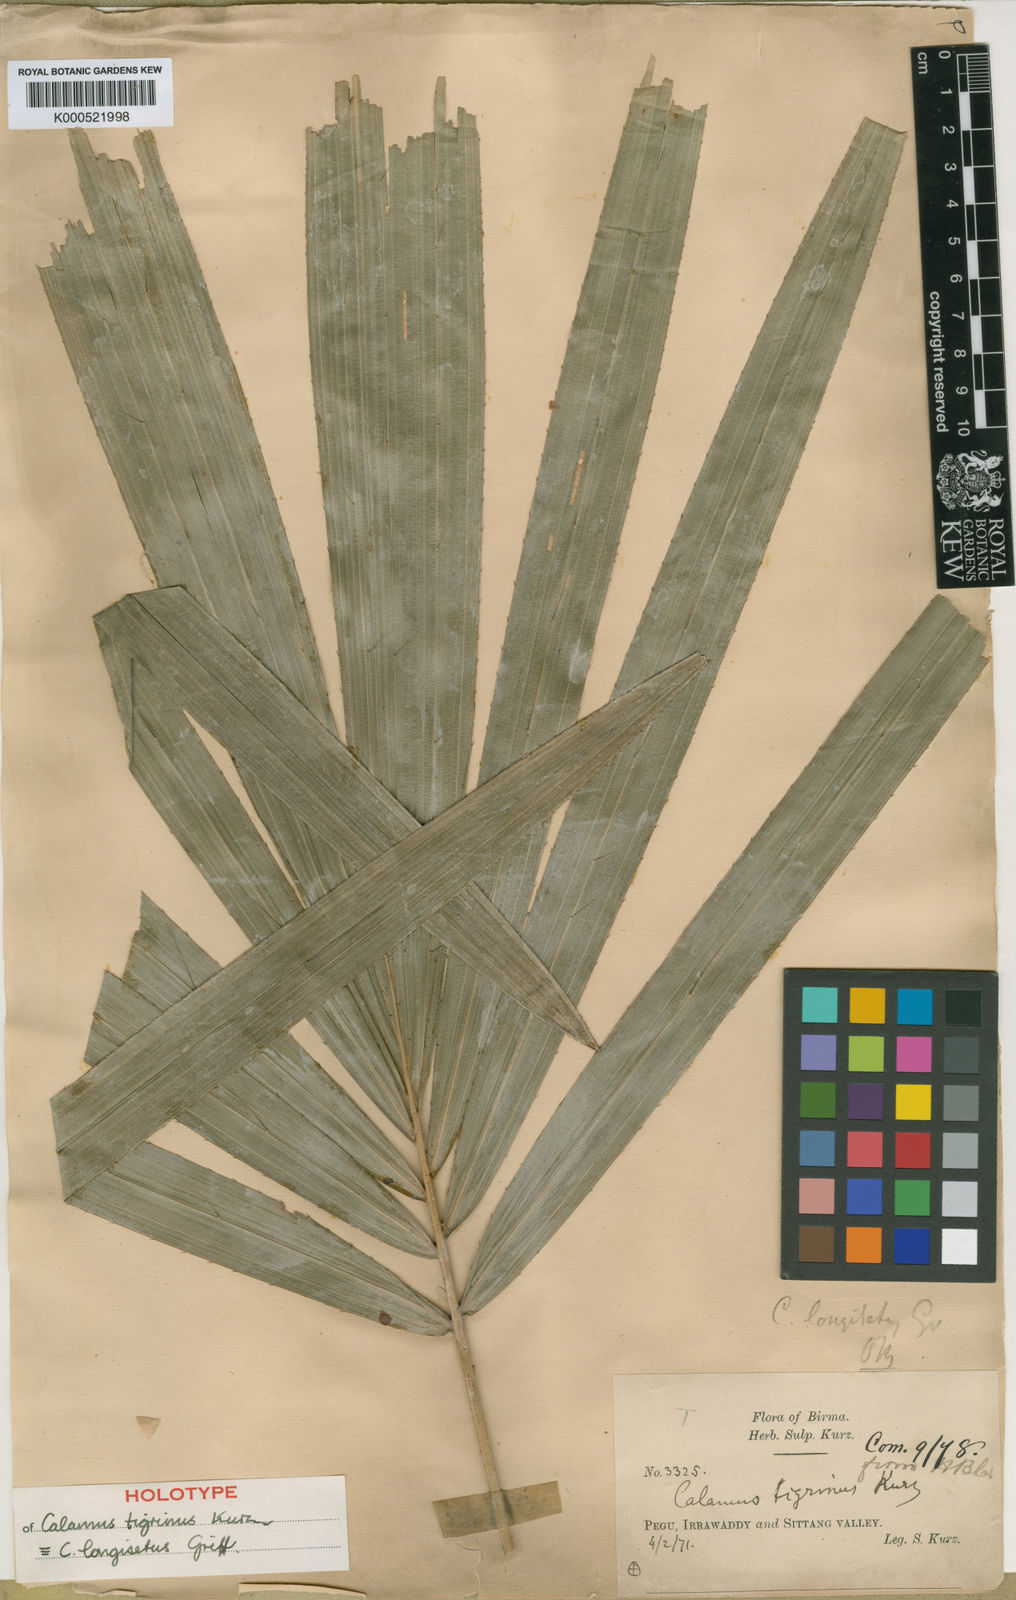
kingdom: Plantae
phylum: Tracheophyta
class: Liliopsida
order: Arecales
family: Arecaceae
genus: Calamus
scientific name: Calamus longisetus
